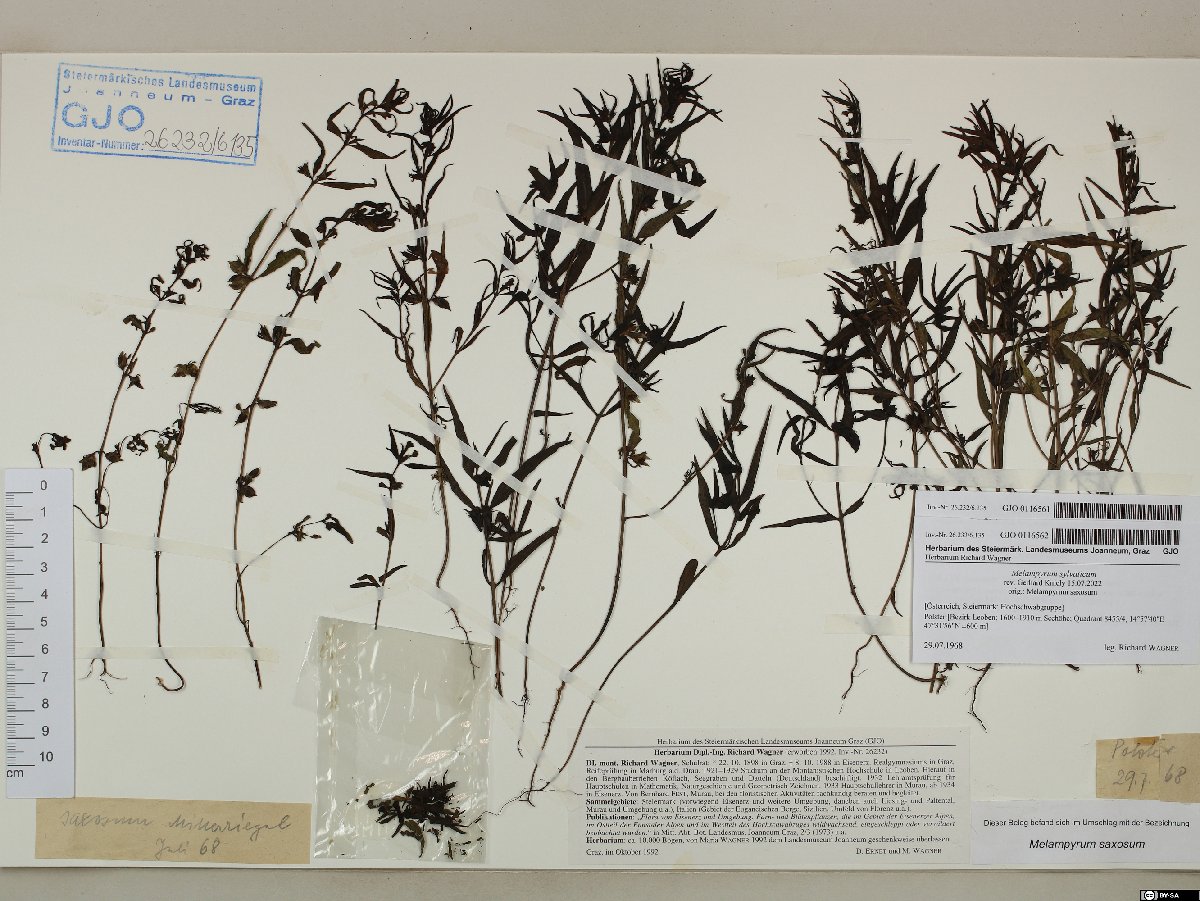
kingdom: Plantae
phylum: Tracheophyta
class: Magnoliopsida
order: Lamiales
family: Orobanchaceae
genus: Melampyrum
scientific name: Melampyrum sylvaticum
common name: Small cow-wheat
